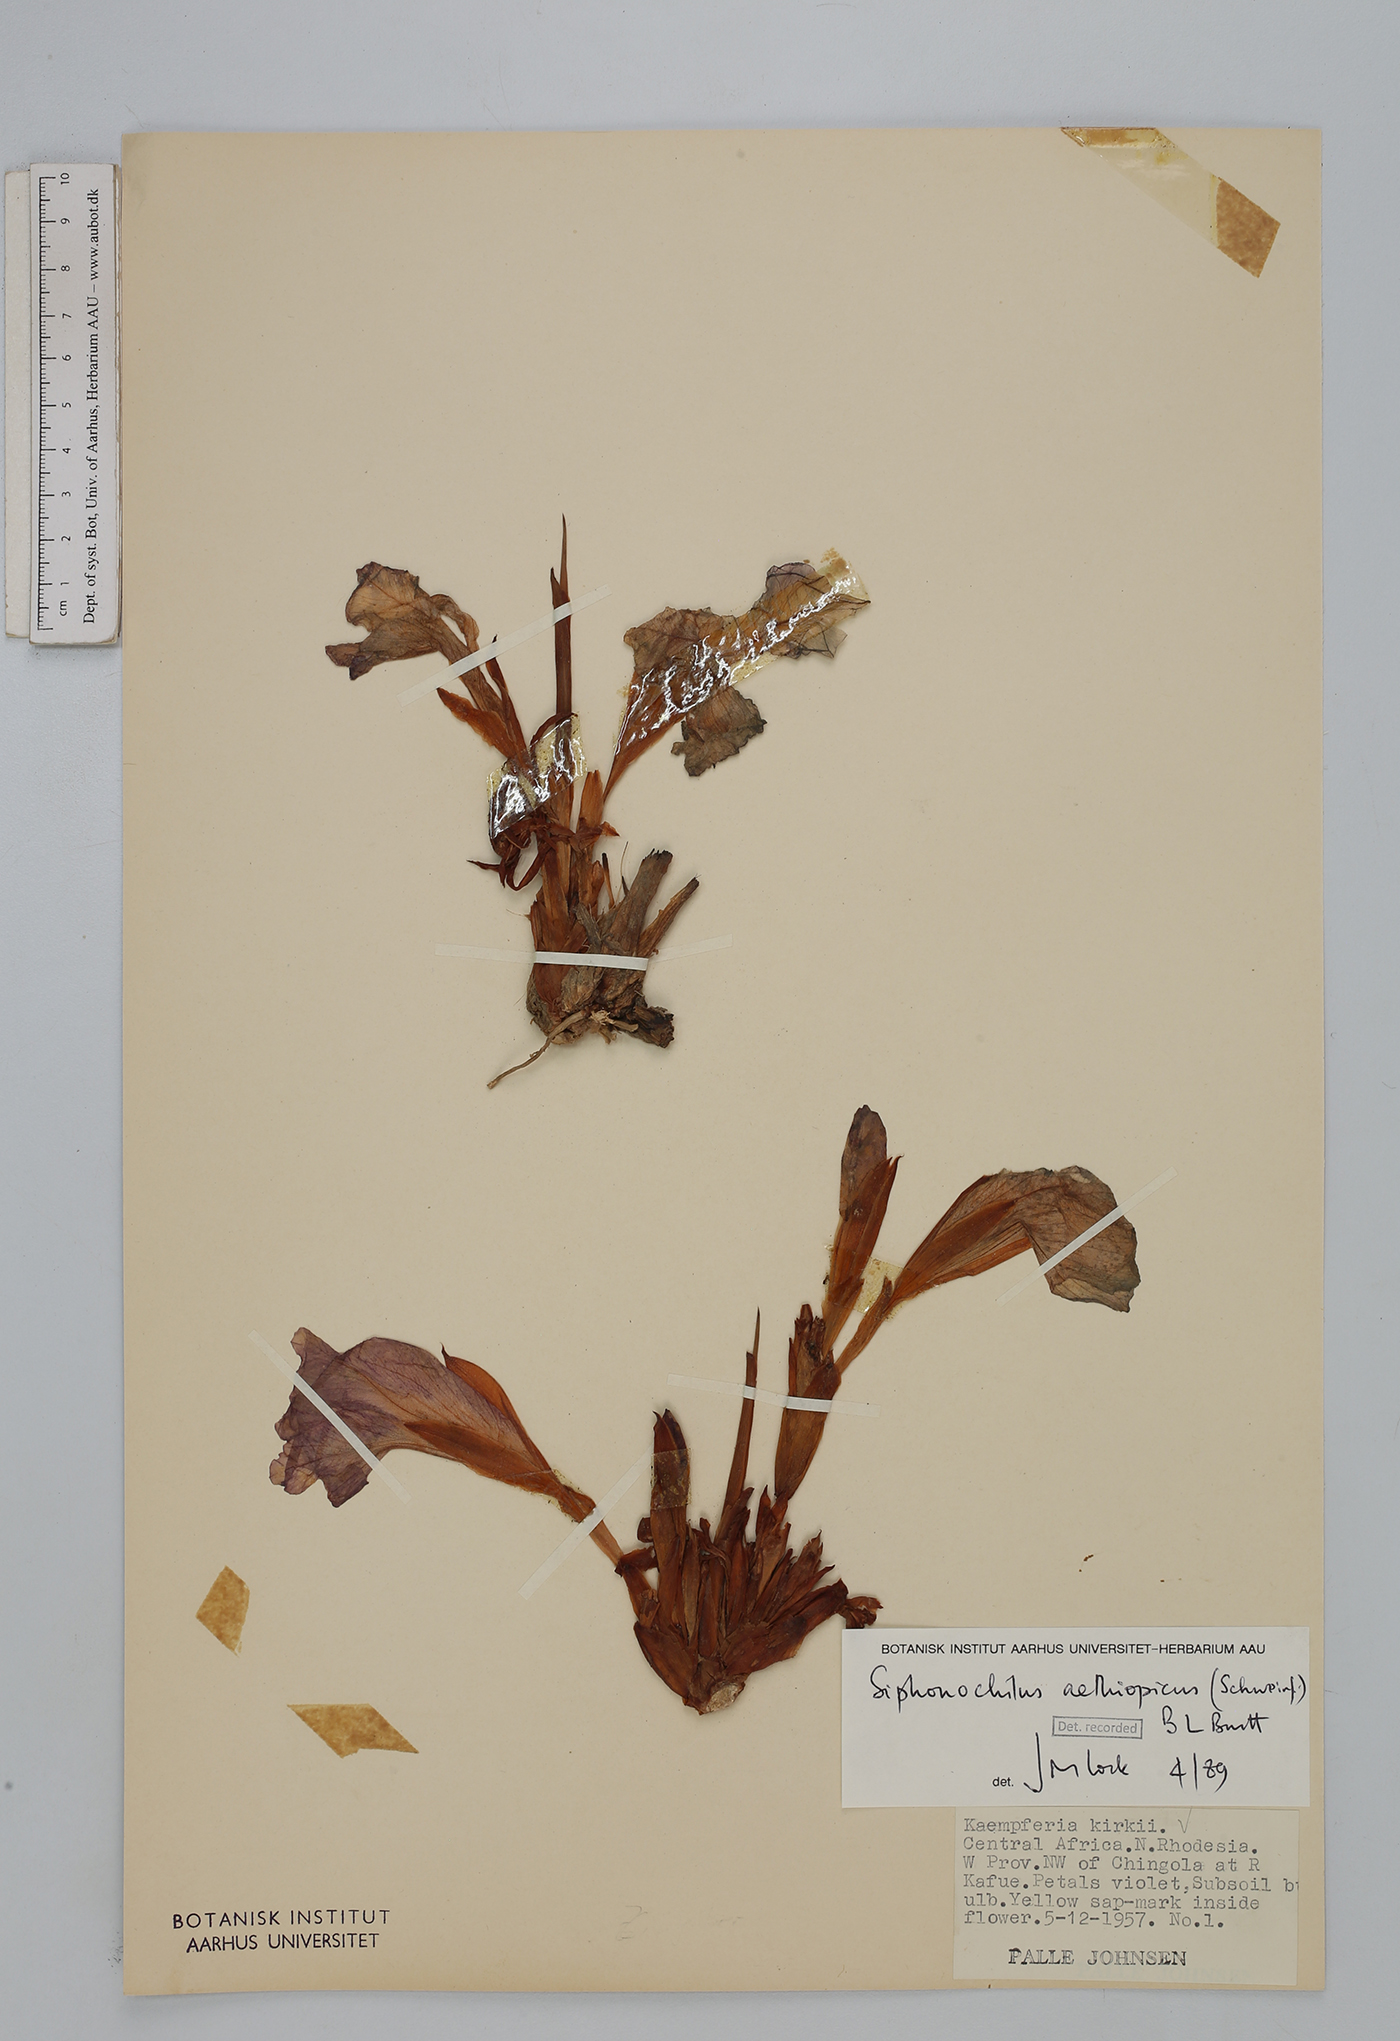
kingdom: Plantae
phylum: Tracheophyta
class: Liliopsida
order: Zingiberales
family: Zingiberaceae
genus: Siphonochilus
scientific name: Siphonochilus aethiopicus
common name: African-ginger
